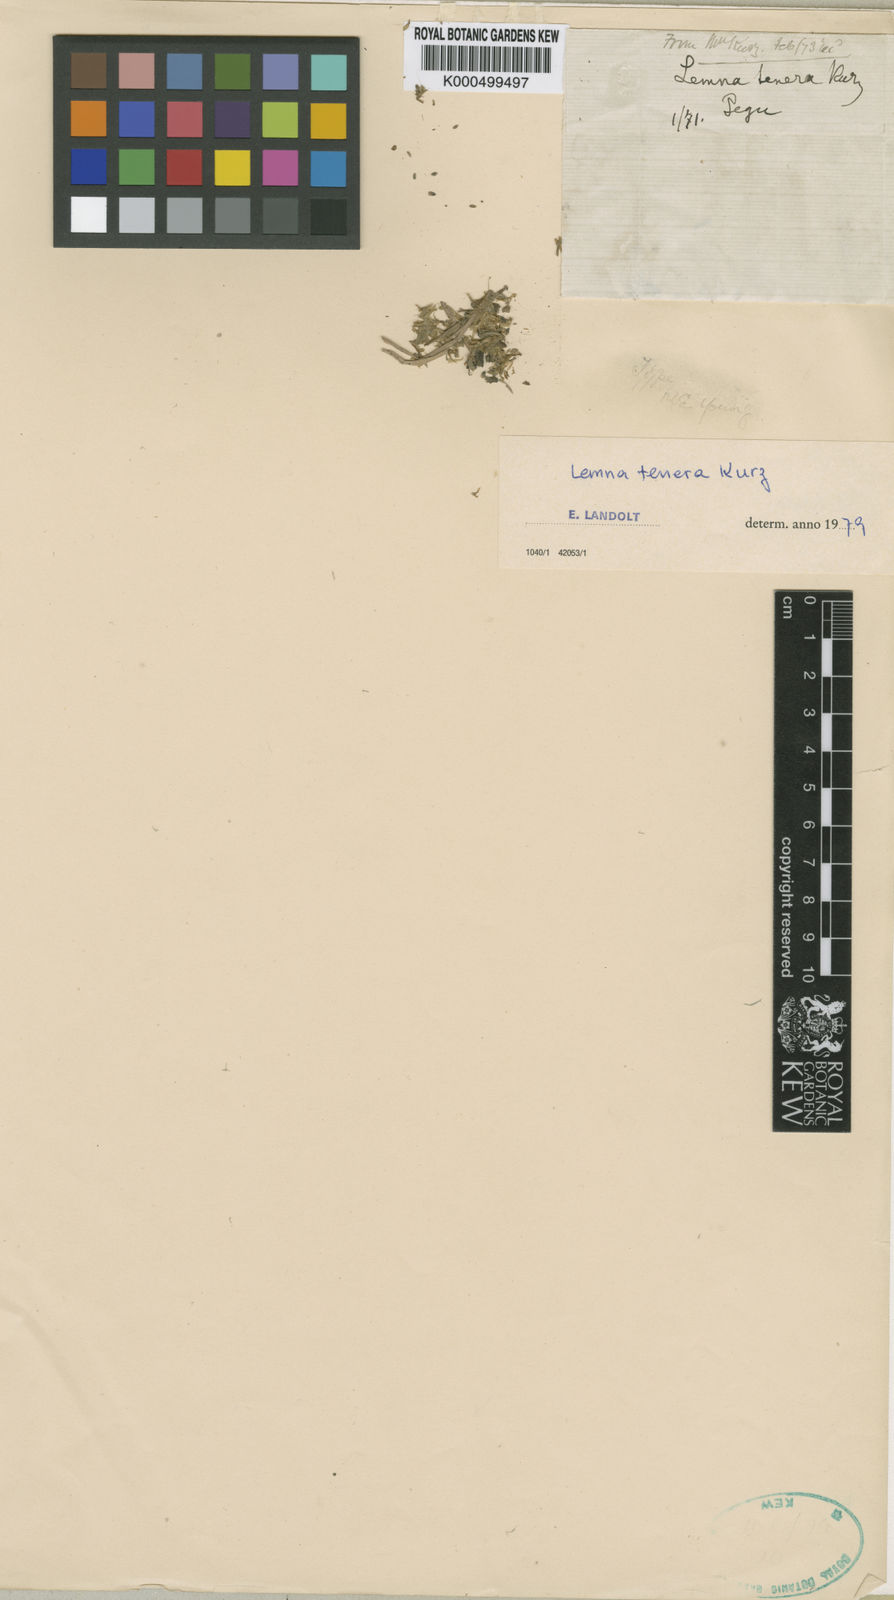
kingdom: Plantae
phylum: Tracheophyta
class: Liliopsida
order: Alismatales
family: Araceae
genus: Lemna
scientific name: Lemna tenera
